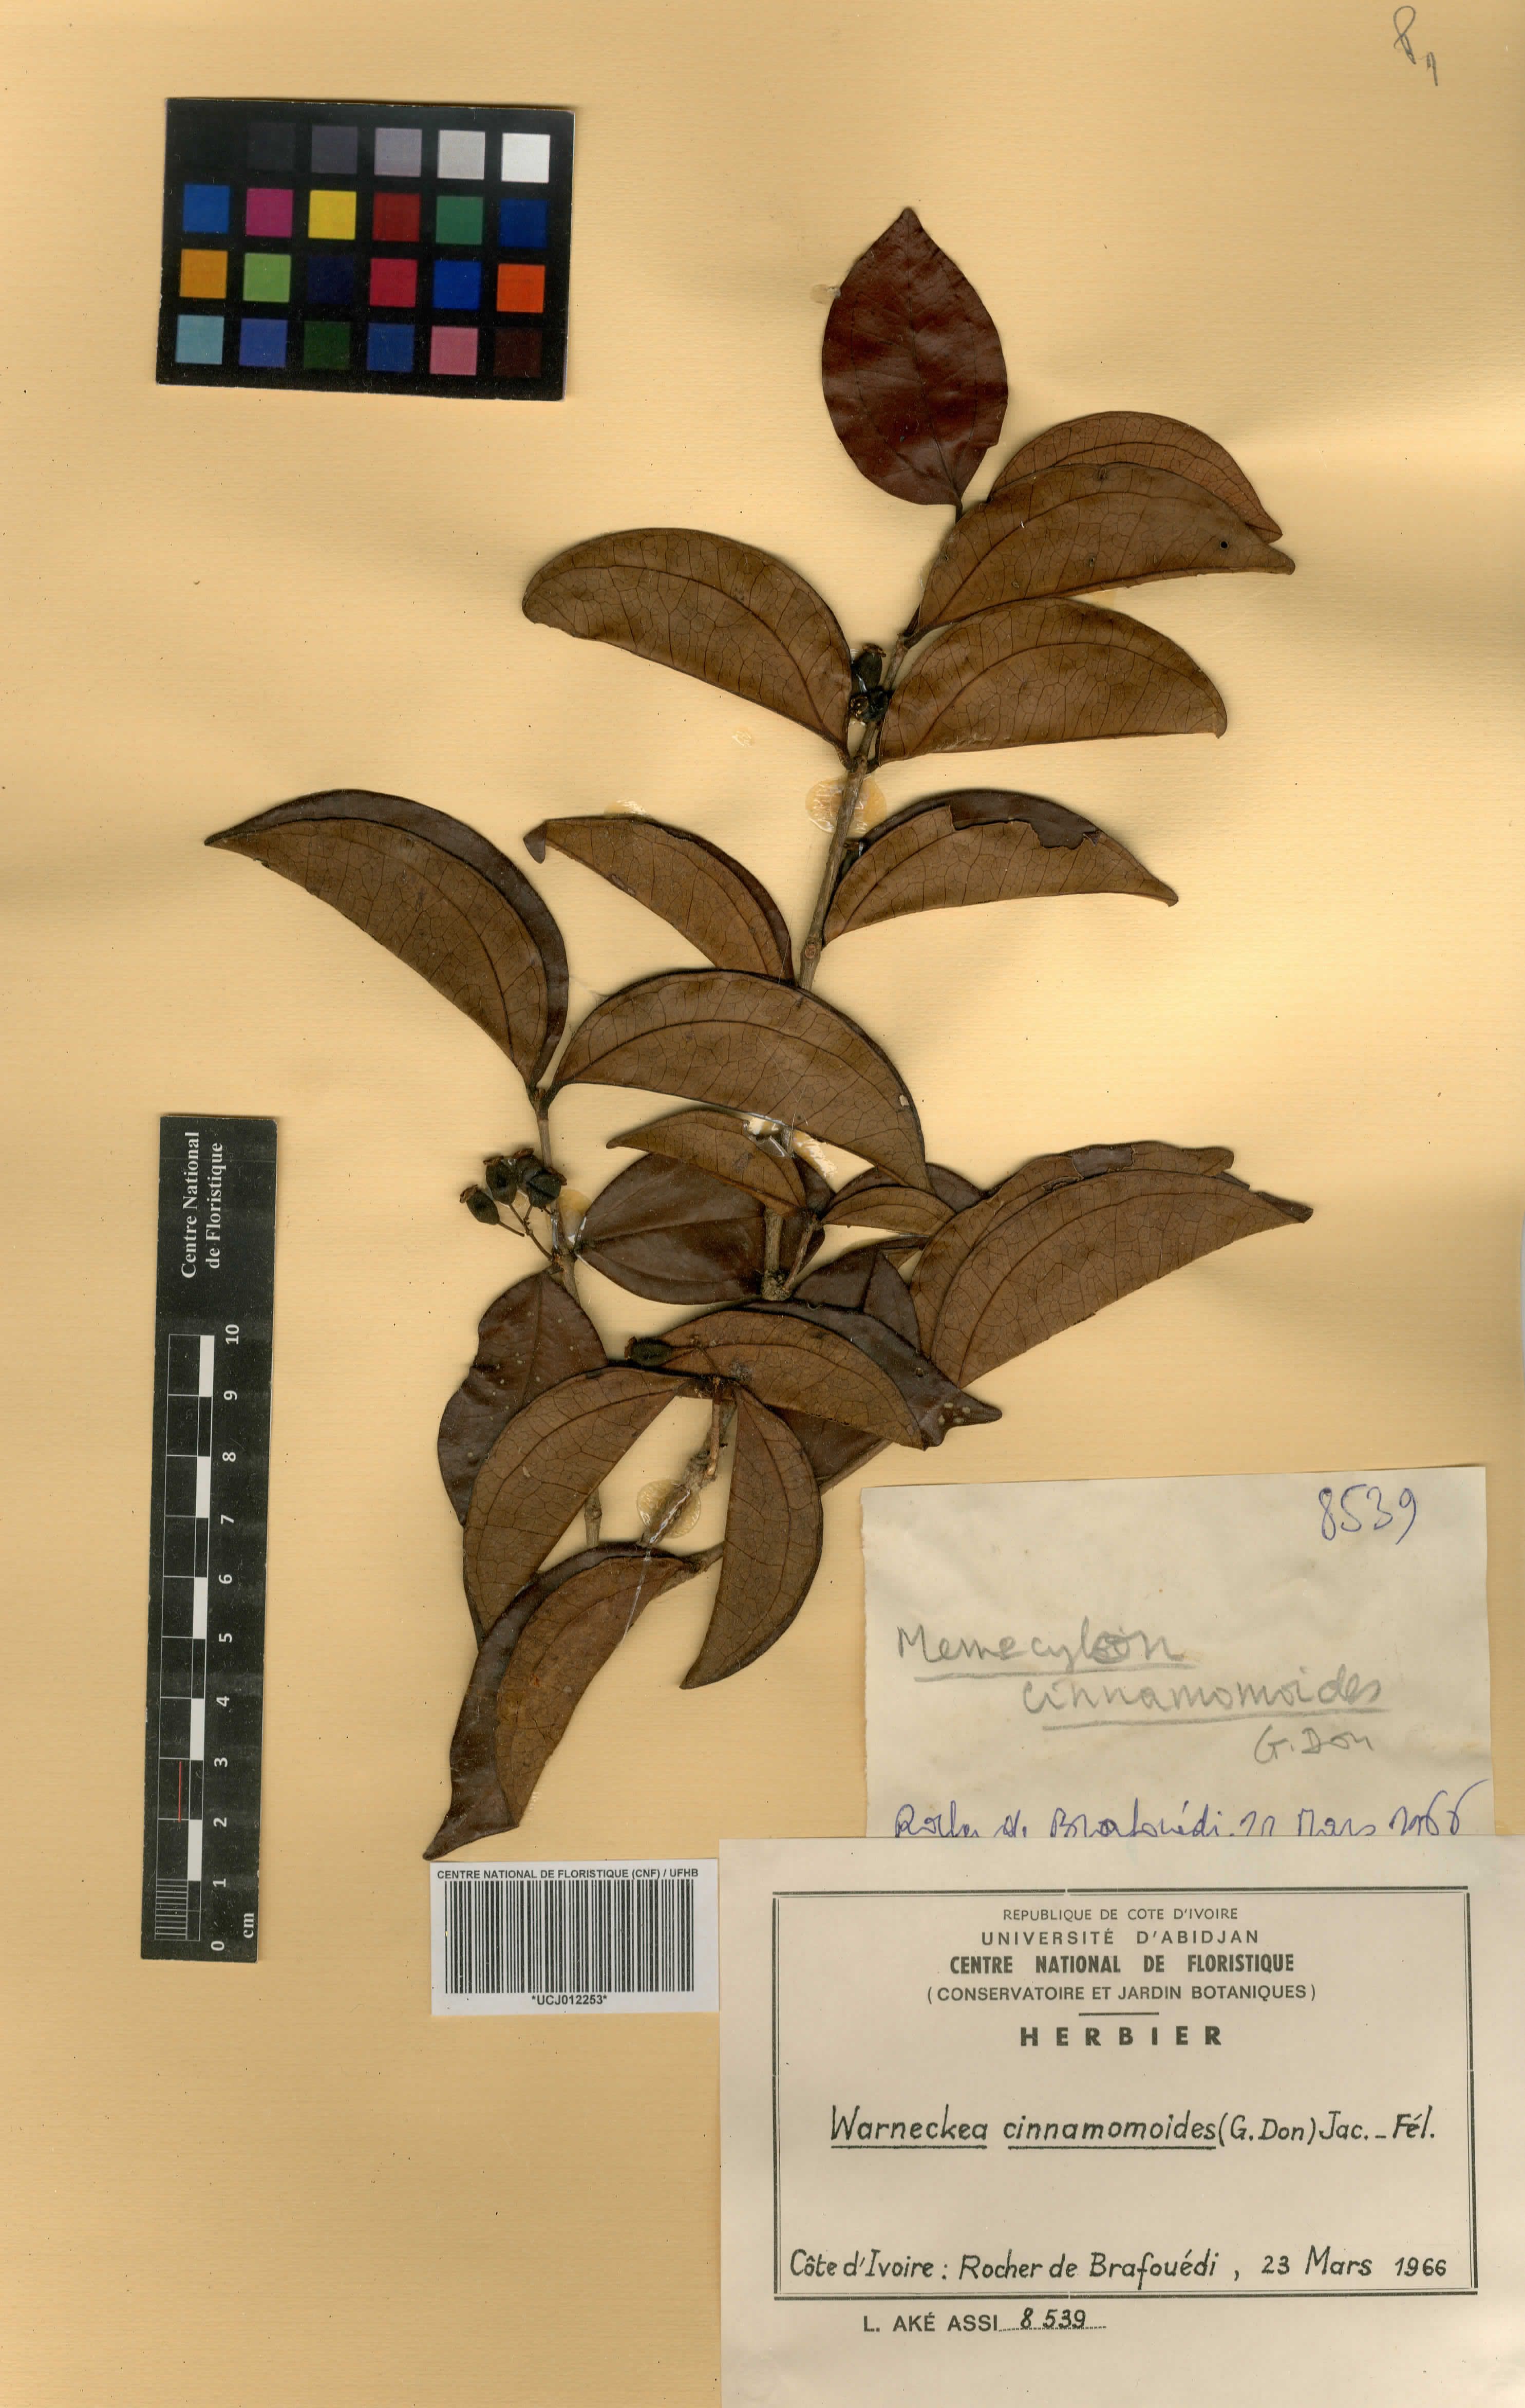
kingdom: Plantae
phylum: Tracheophyta
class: Magnoliopsida
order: Myrtales
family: Melastomataceae
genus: Warneckea
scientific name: Warneckea cinnamomoides
